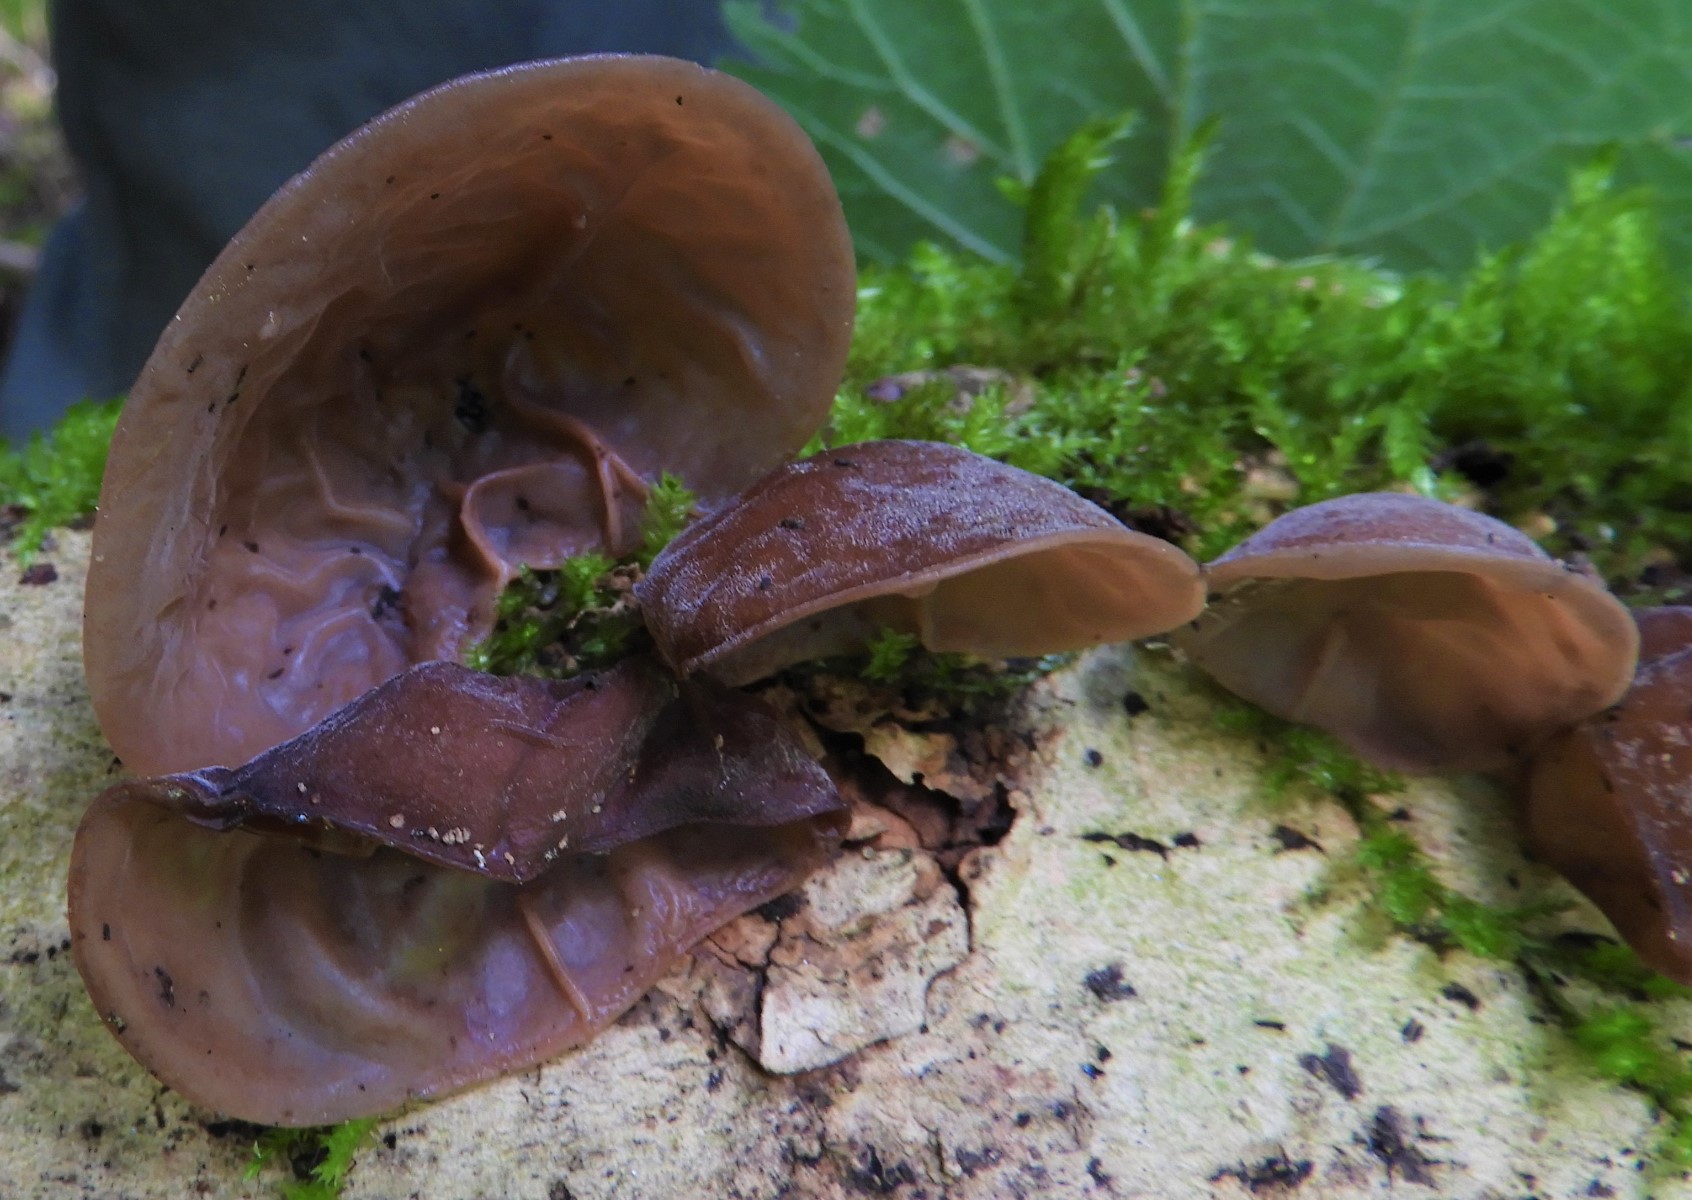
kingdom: Fungi
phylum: Basidiomycota
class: Agaricomycetes
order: Auriculariales
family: Auriculariaceae
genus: Auricularia
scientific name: Auricularia auricula-judae
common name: almindelig judasøre
